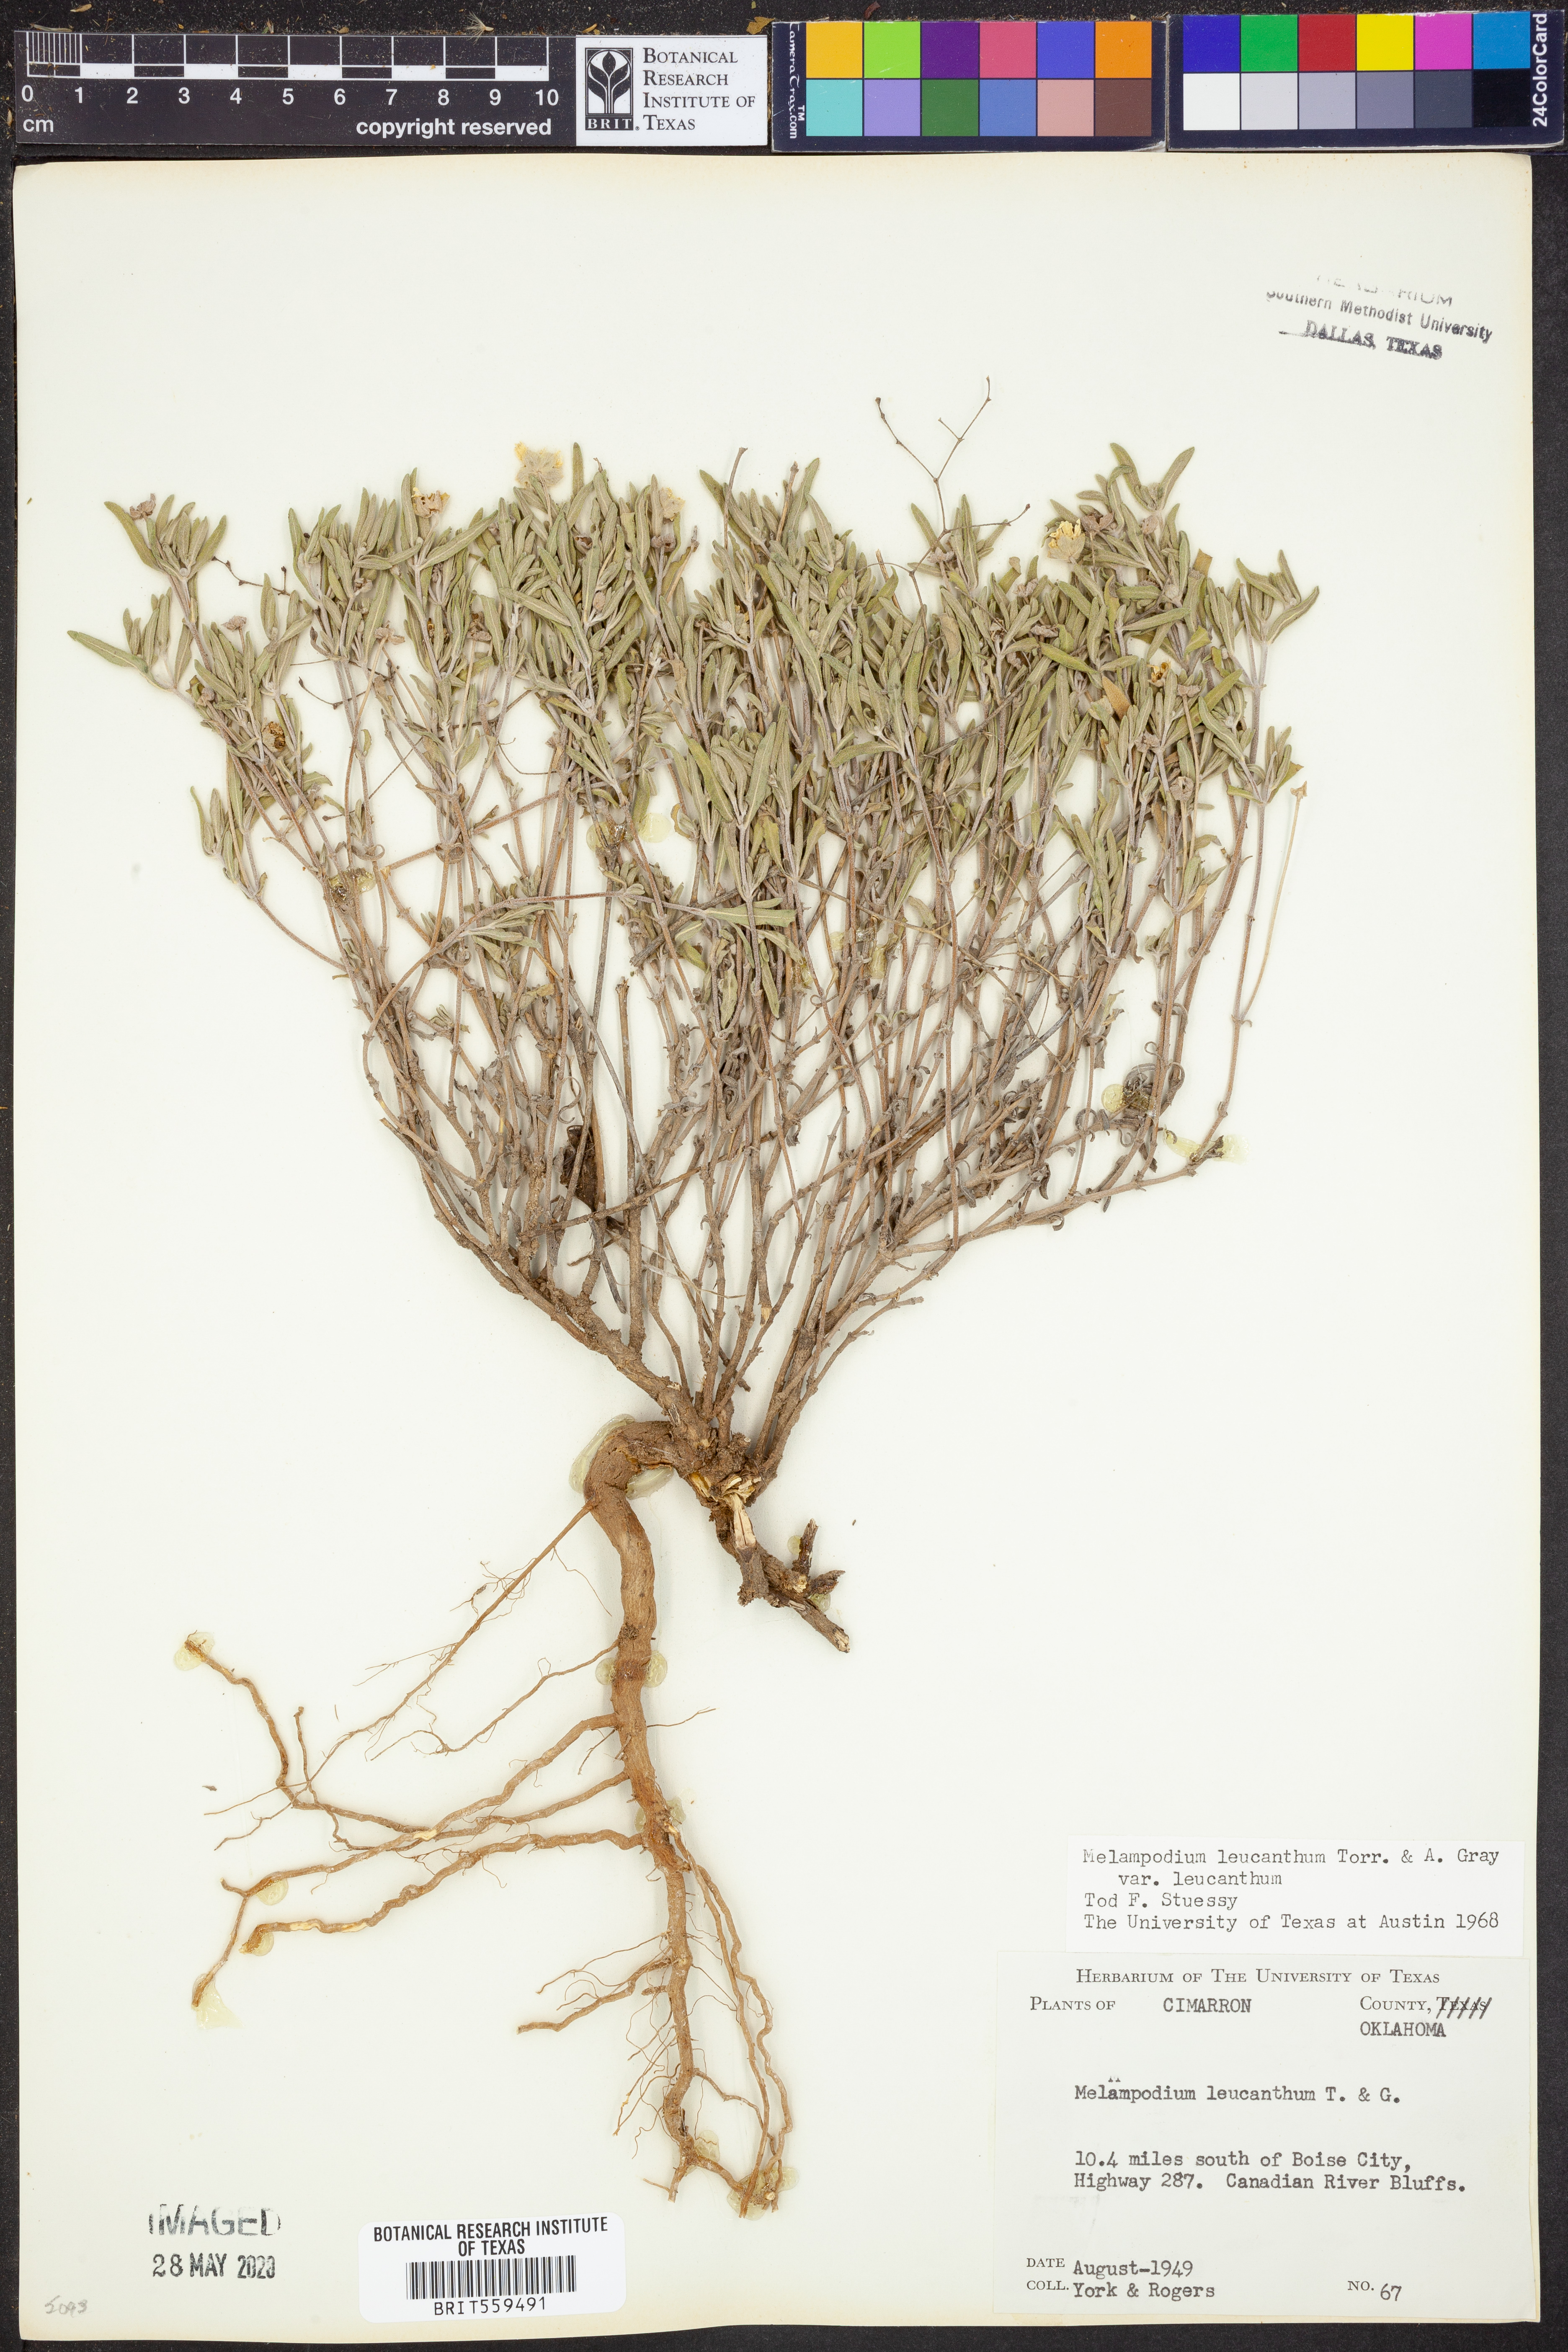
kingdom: Plantae
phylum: Tracheophyta
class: Magnoliopsida
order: Asterales
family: Asteraceae
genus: Melampodium
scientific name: Melampodium leucanthum
